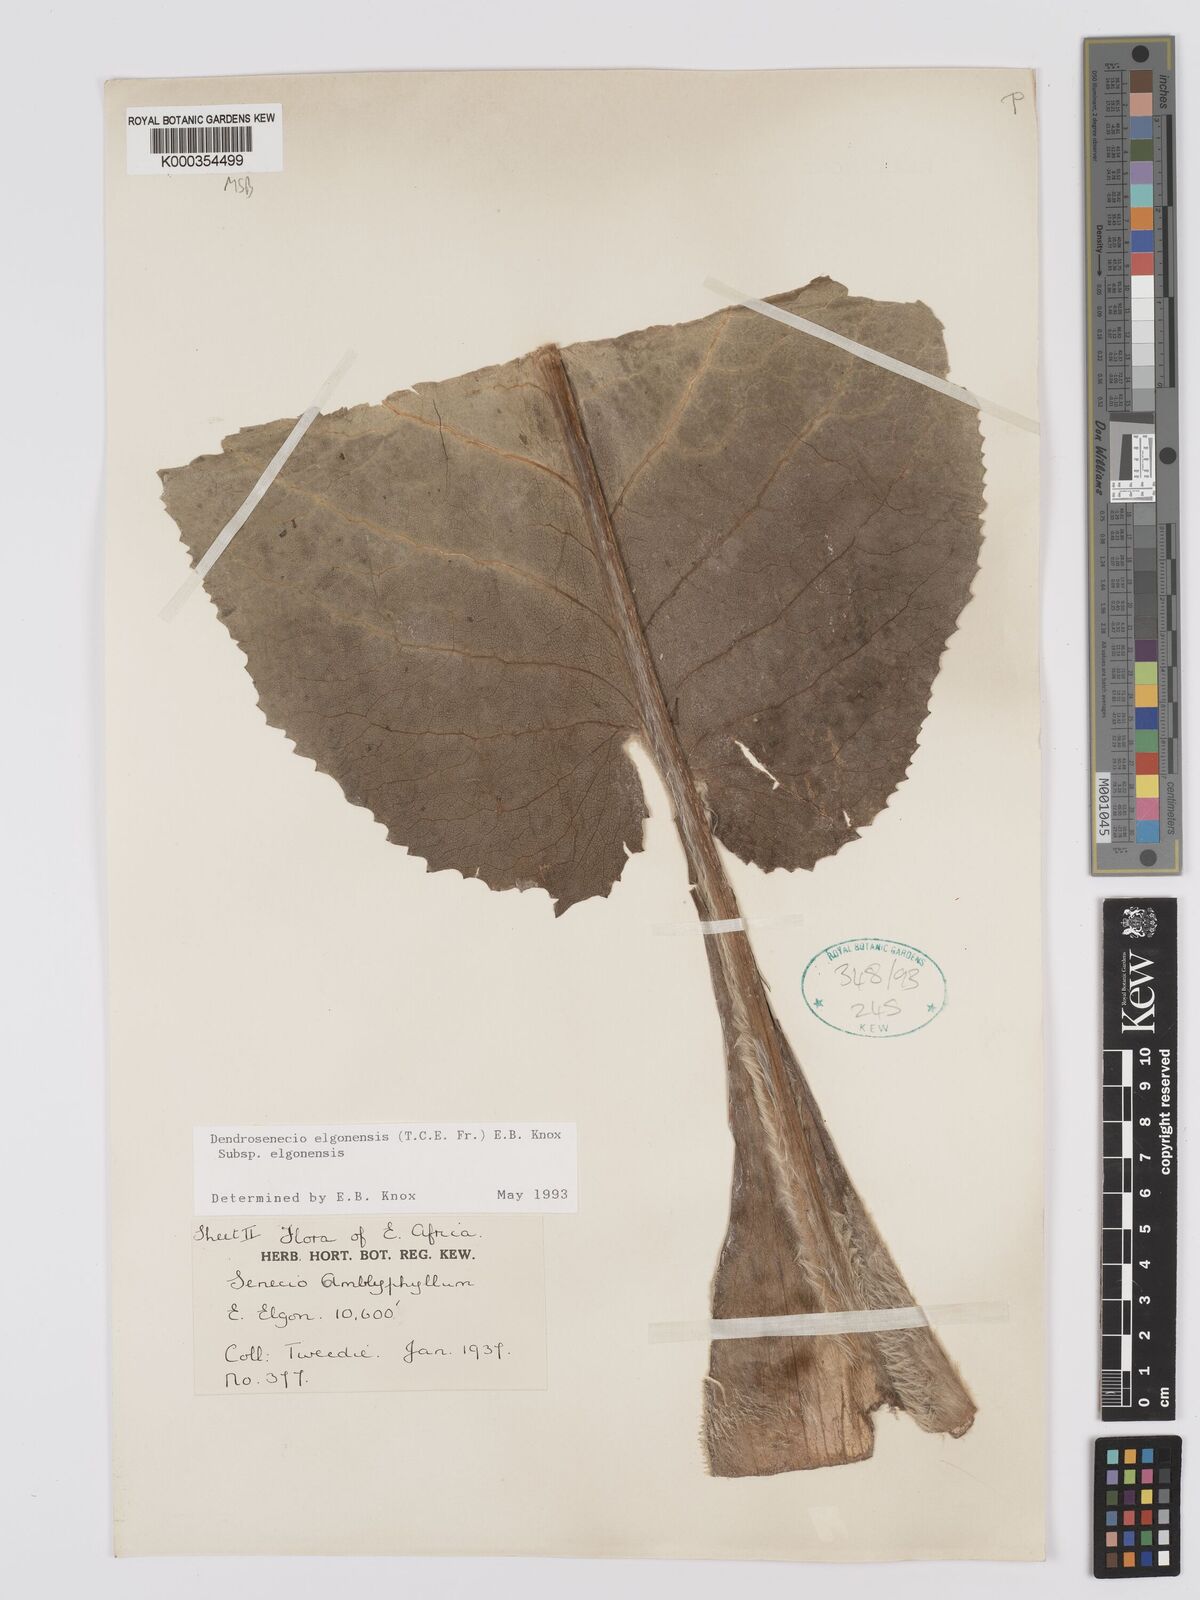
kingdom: Plantae
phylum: Tracheophyta
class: Magnoliopsida
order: Asterales
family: Asteraceae
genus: Dendrosenecio
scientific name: Dendrosenecio elgonensis
